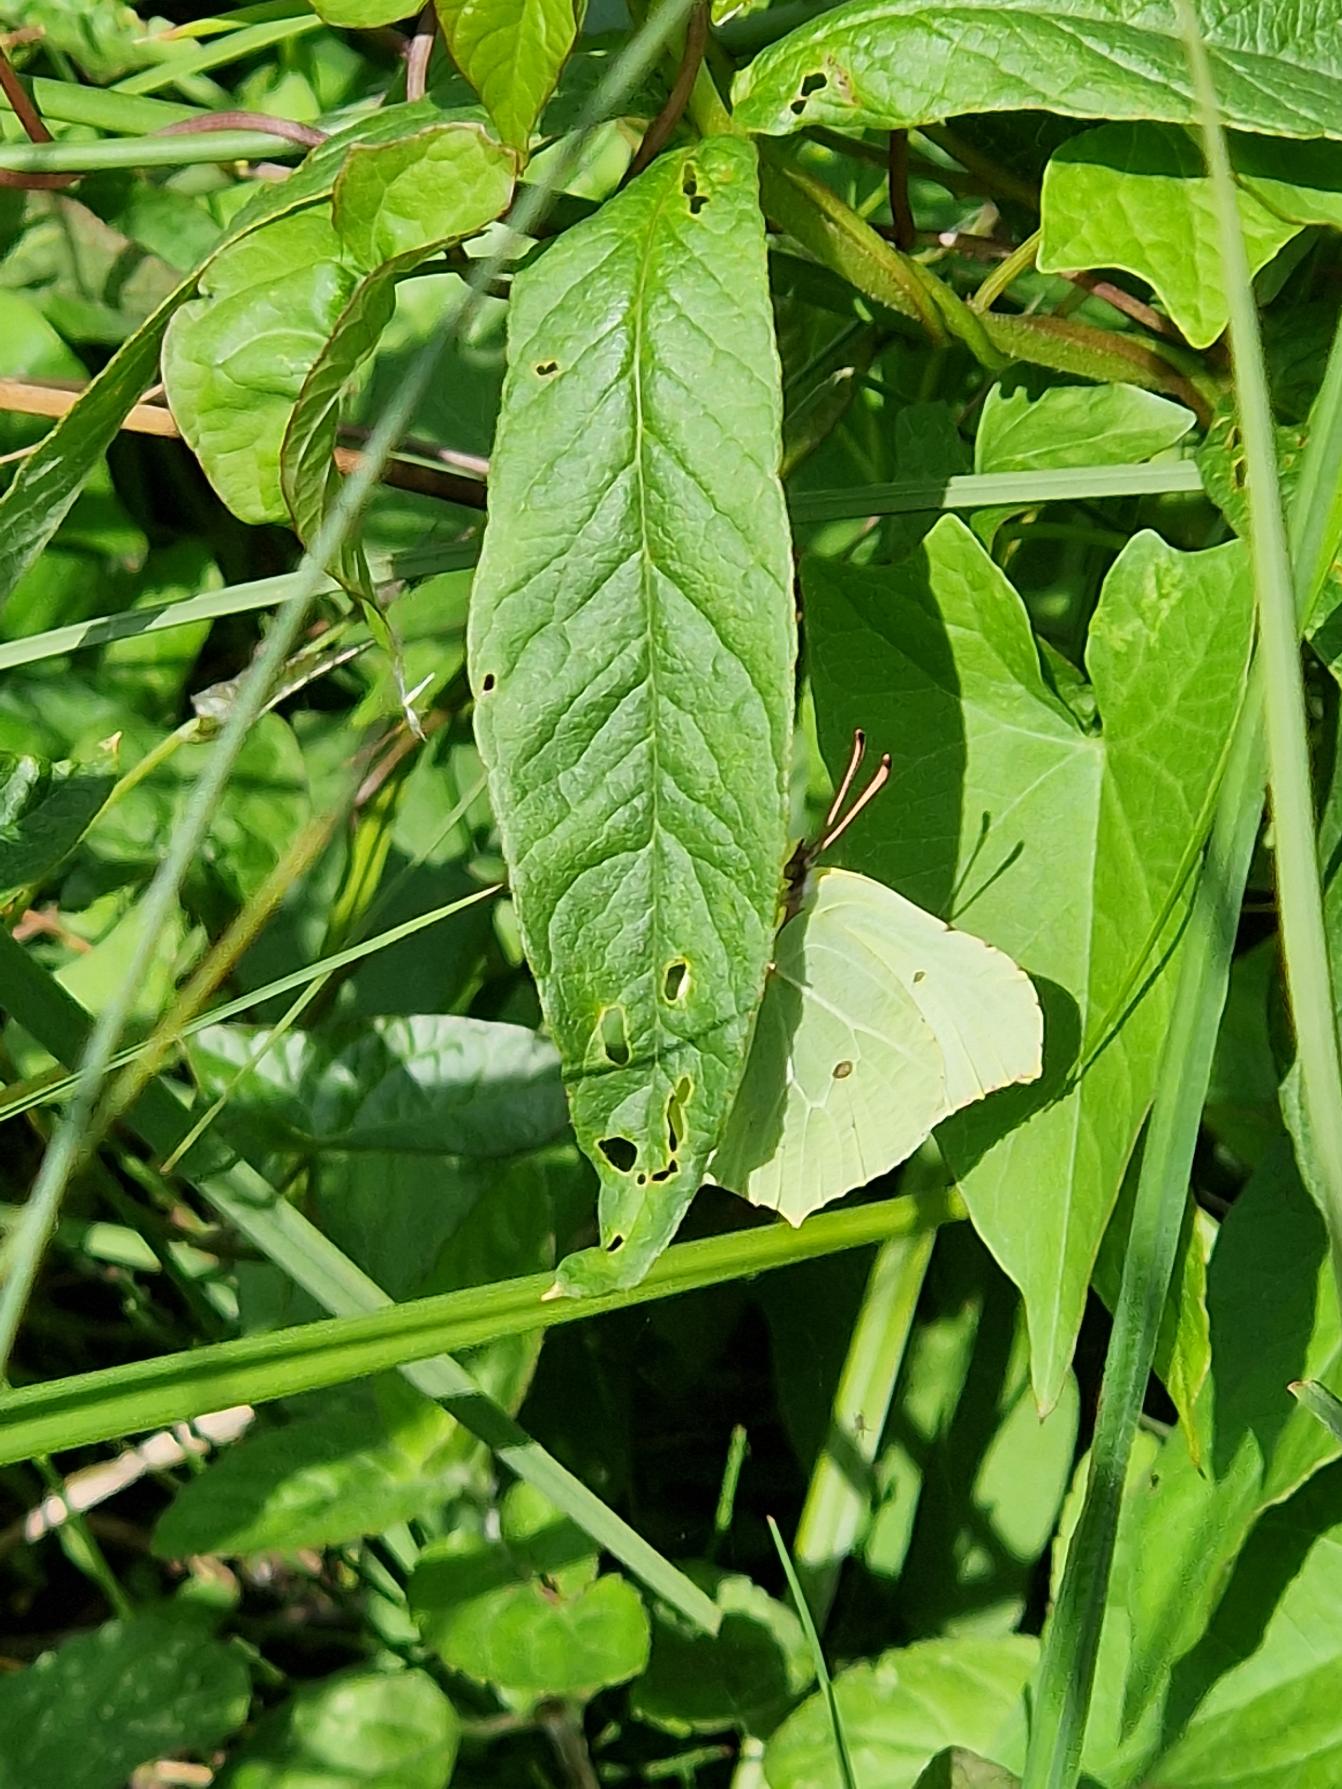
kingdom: Animalia
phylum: Arthropoda
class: Insecta
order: Lepidoptera
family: Pieridae
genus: Gonepteryx
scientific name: Gonepteryx rhamni
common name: Citronsommerfugl
